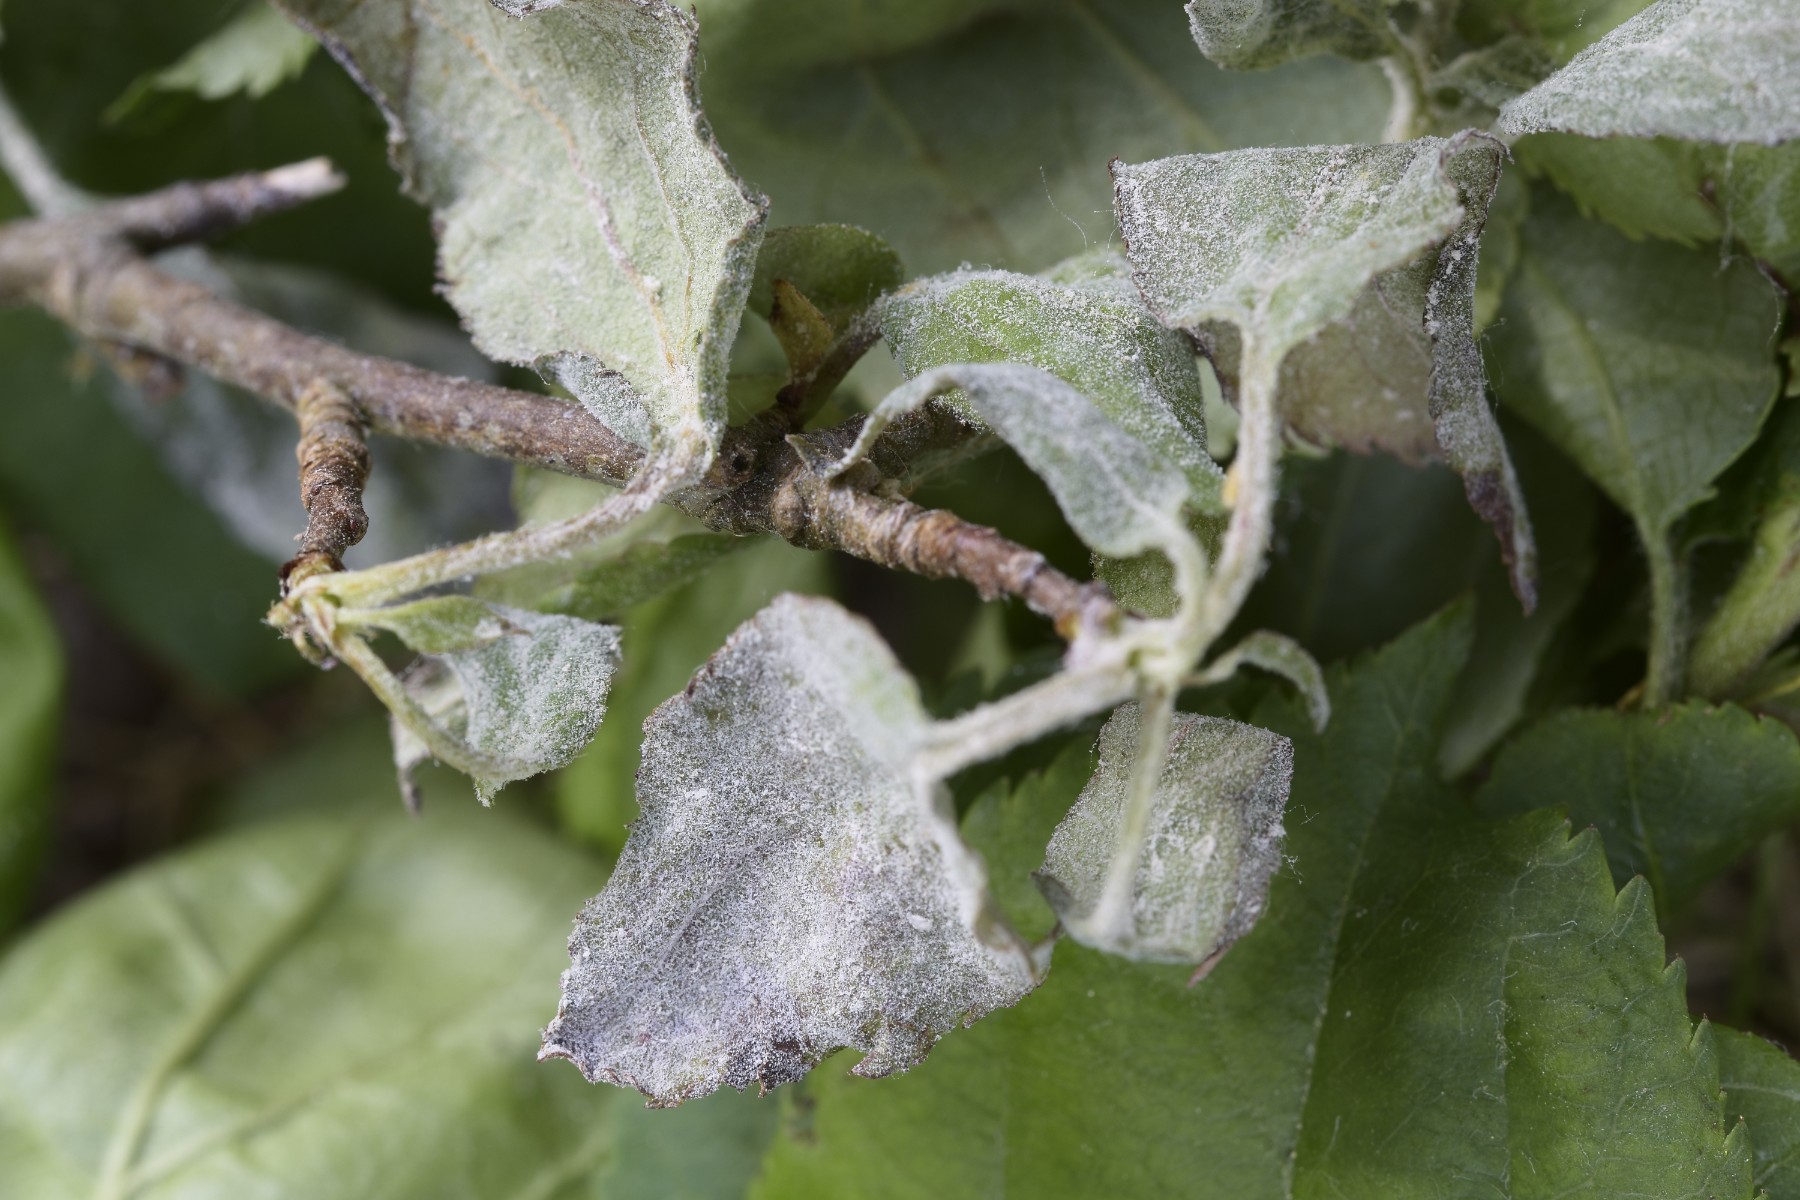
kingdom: Fungi
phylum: Ascomycota
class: Leotiomycetes
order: Helotiales
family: Erysiphaceae
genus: Podosphaera
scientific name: Podosphaera leucotricha
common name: æble-meldug
